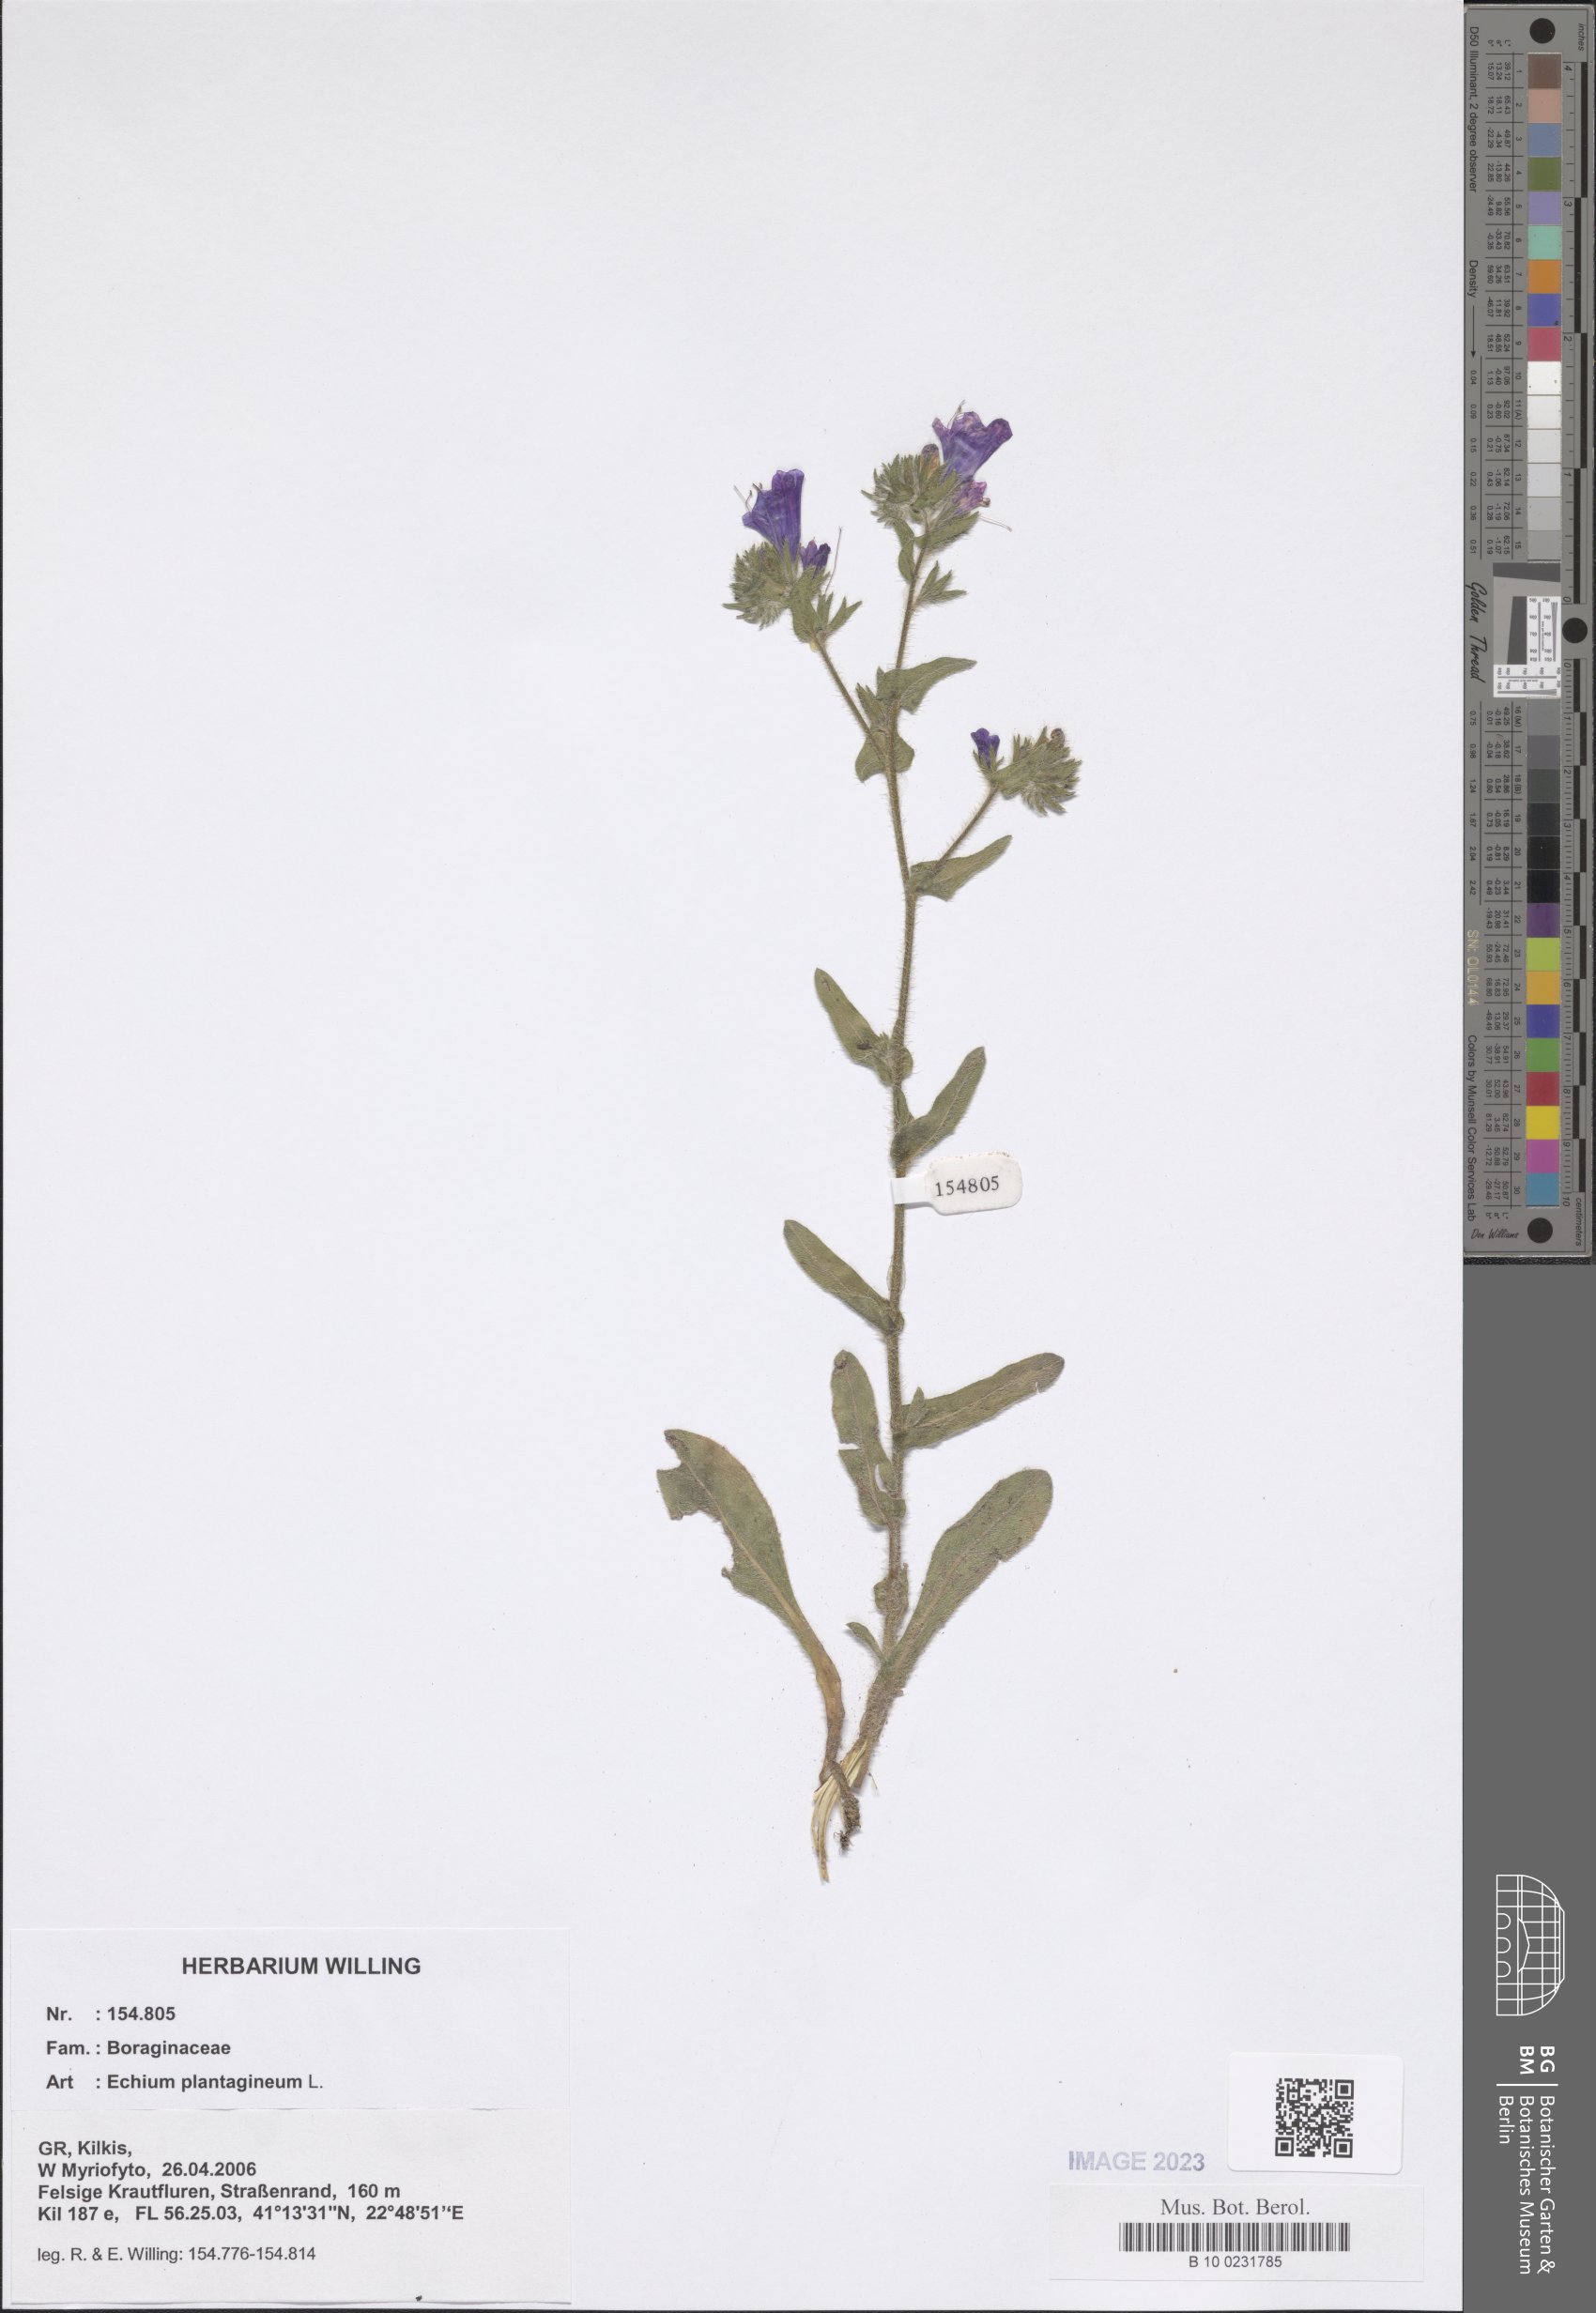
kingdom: Plantae
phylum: Tracheophyta
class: Magnoliopsida
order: Boraginales
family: Boraginaceae
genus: Echium
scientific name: Echium plantagineum
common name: Purple viper's-bugloss
